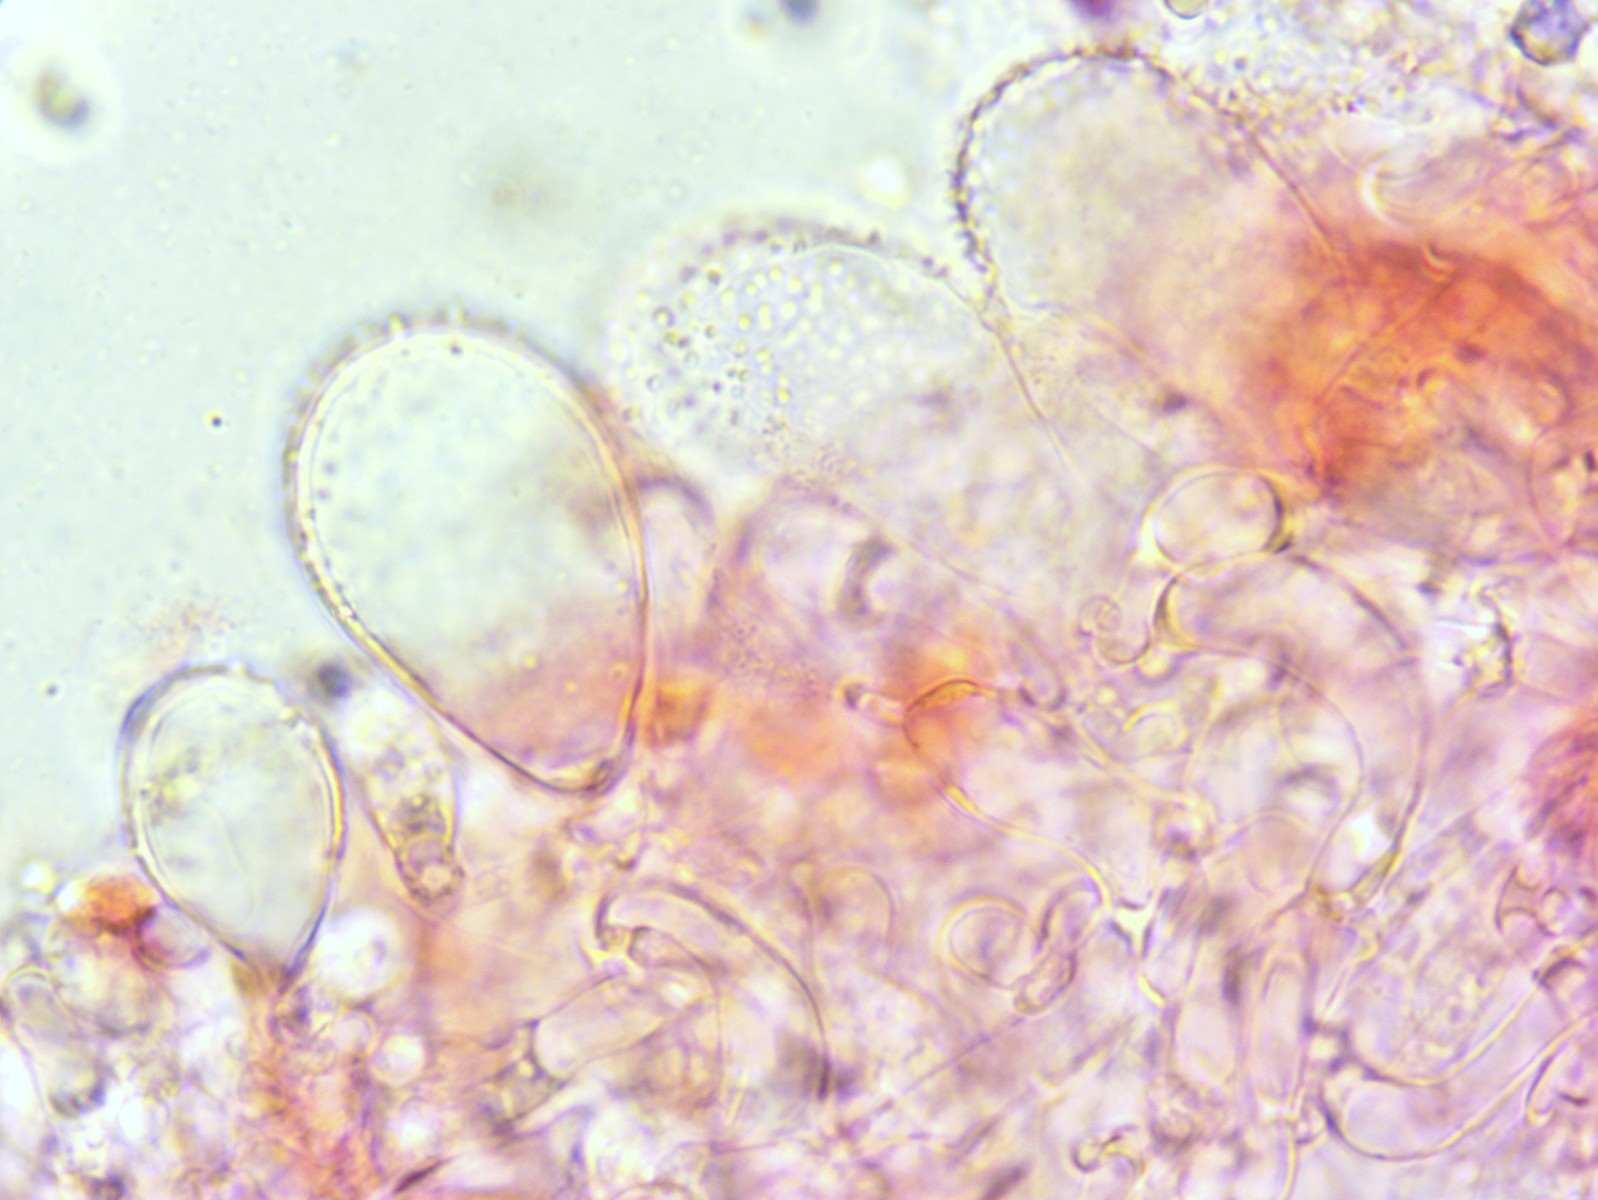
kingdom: Fungi
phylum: Basidiomycota
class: Agaricomycetes
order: Agaricales
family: Mycenaceae
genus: Mycena
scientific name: Mycena flavescens
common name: grågul huesvamp
